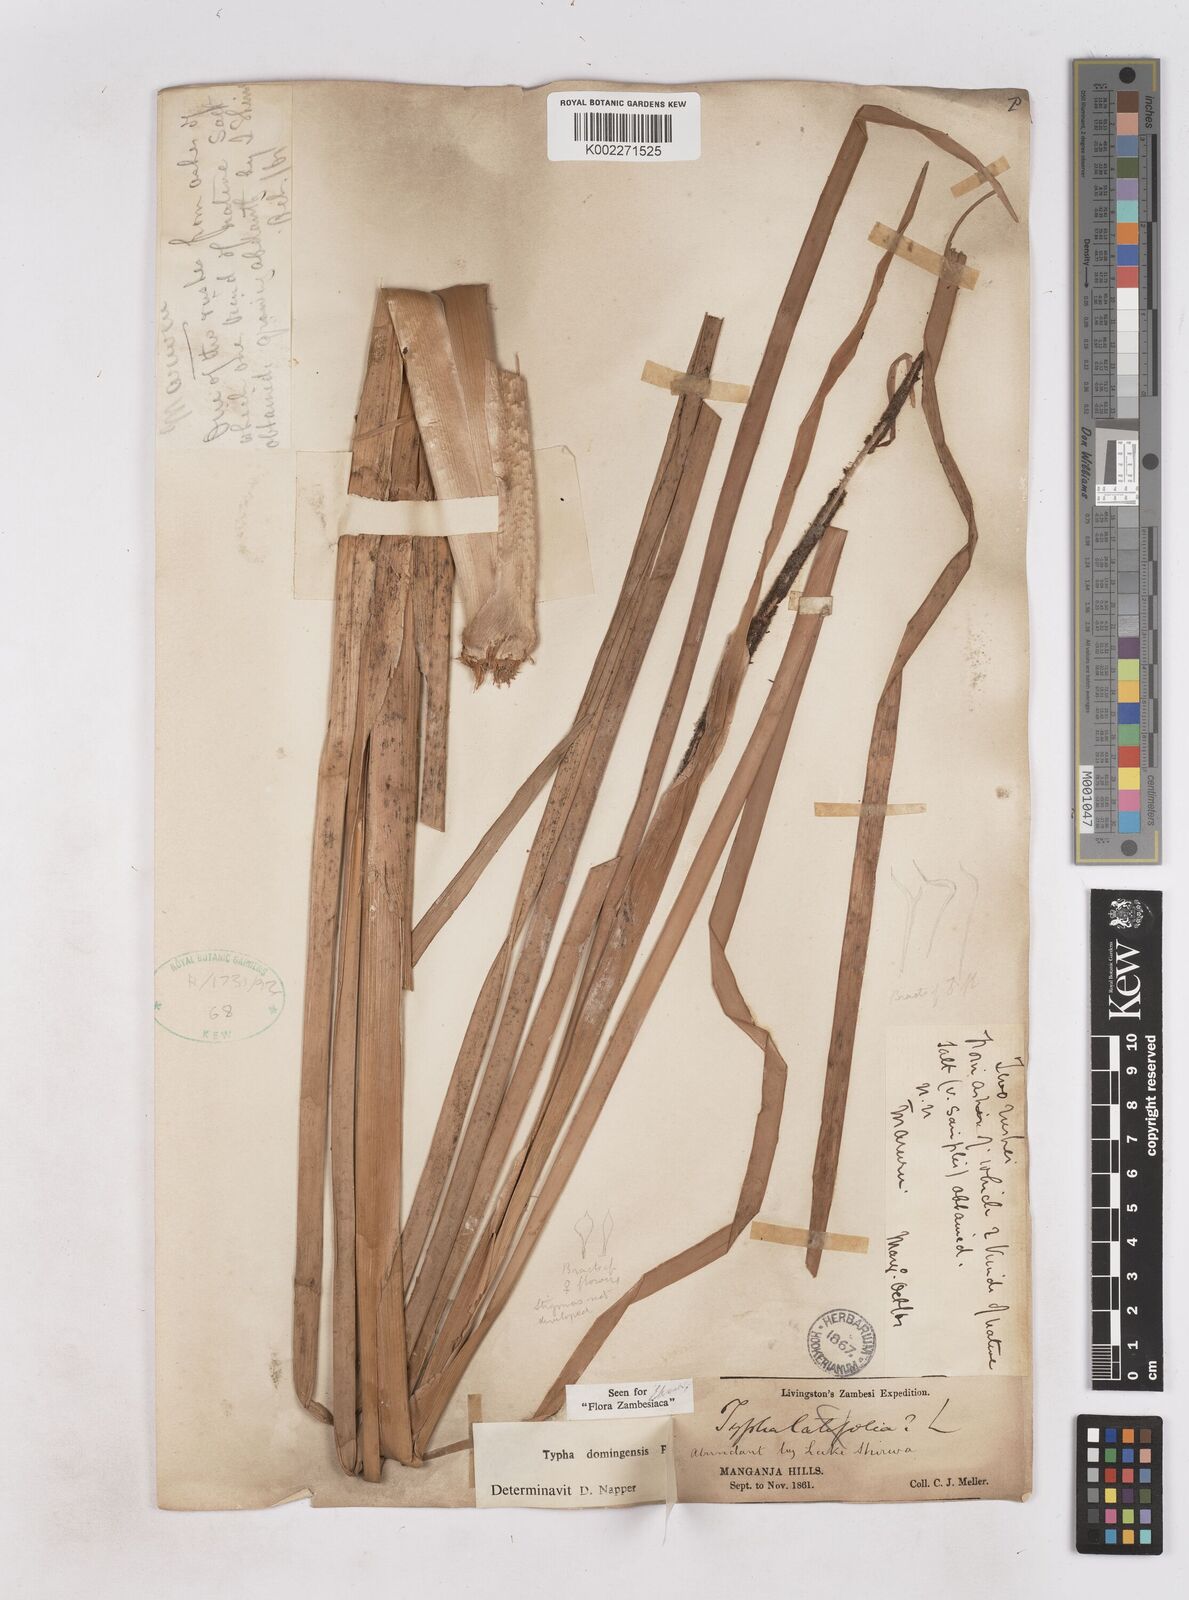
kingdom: Plantae
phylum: Tracheophyta
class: Liliopsida
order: Poales
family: Typhaceae
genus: Typha
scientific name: Typha domingensis
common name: Southern cattail
